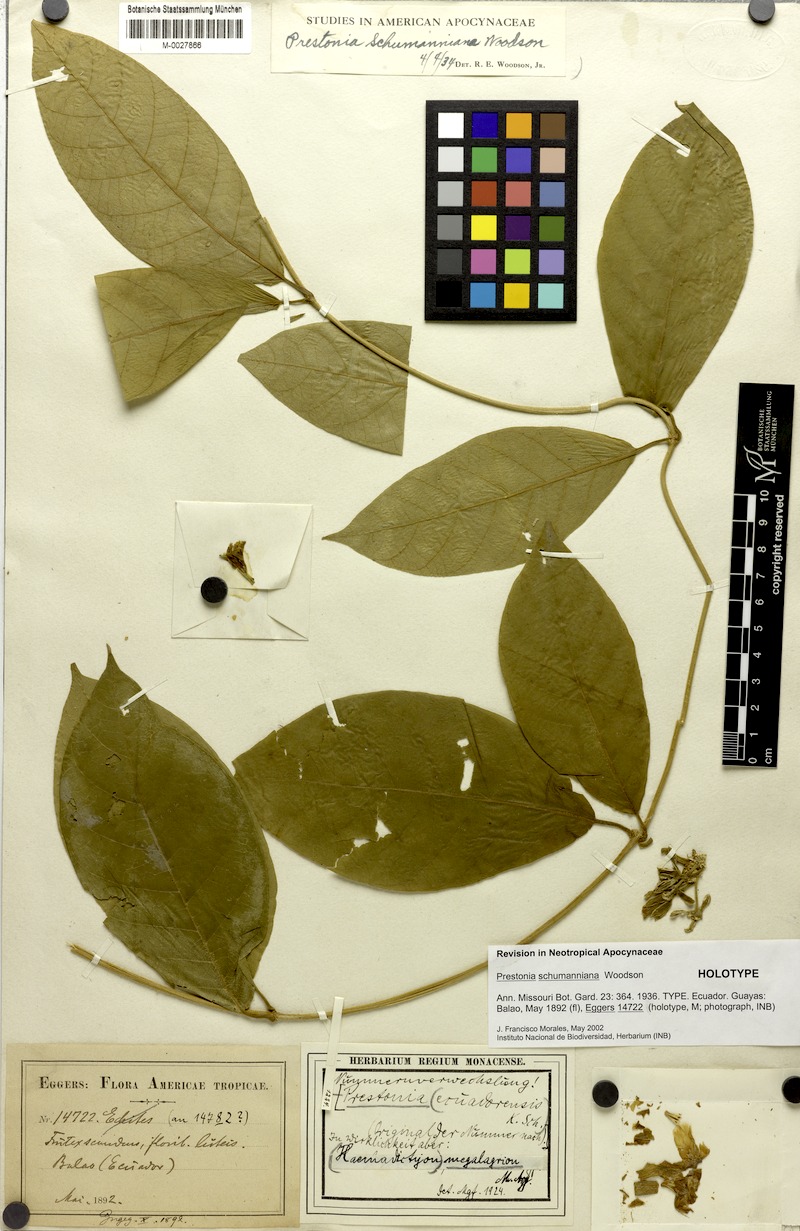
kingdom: Plantae
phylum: Tracheophyta
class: Magnoliopsida
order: Gentianales
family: Apocynaceae
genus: Prestonia
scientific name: Prestonia schumanniana
